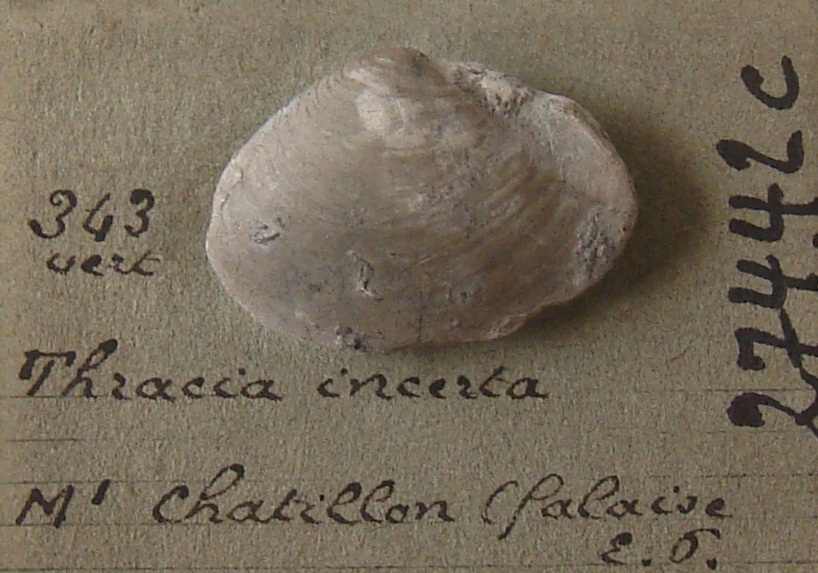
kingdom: Animalia
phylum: Mollusca
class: Bivalvia
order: Cardiida
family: Tellinidae
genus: Tellinella
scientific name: Tellinella cruciata
